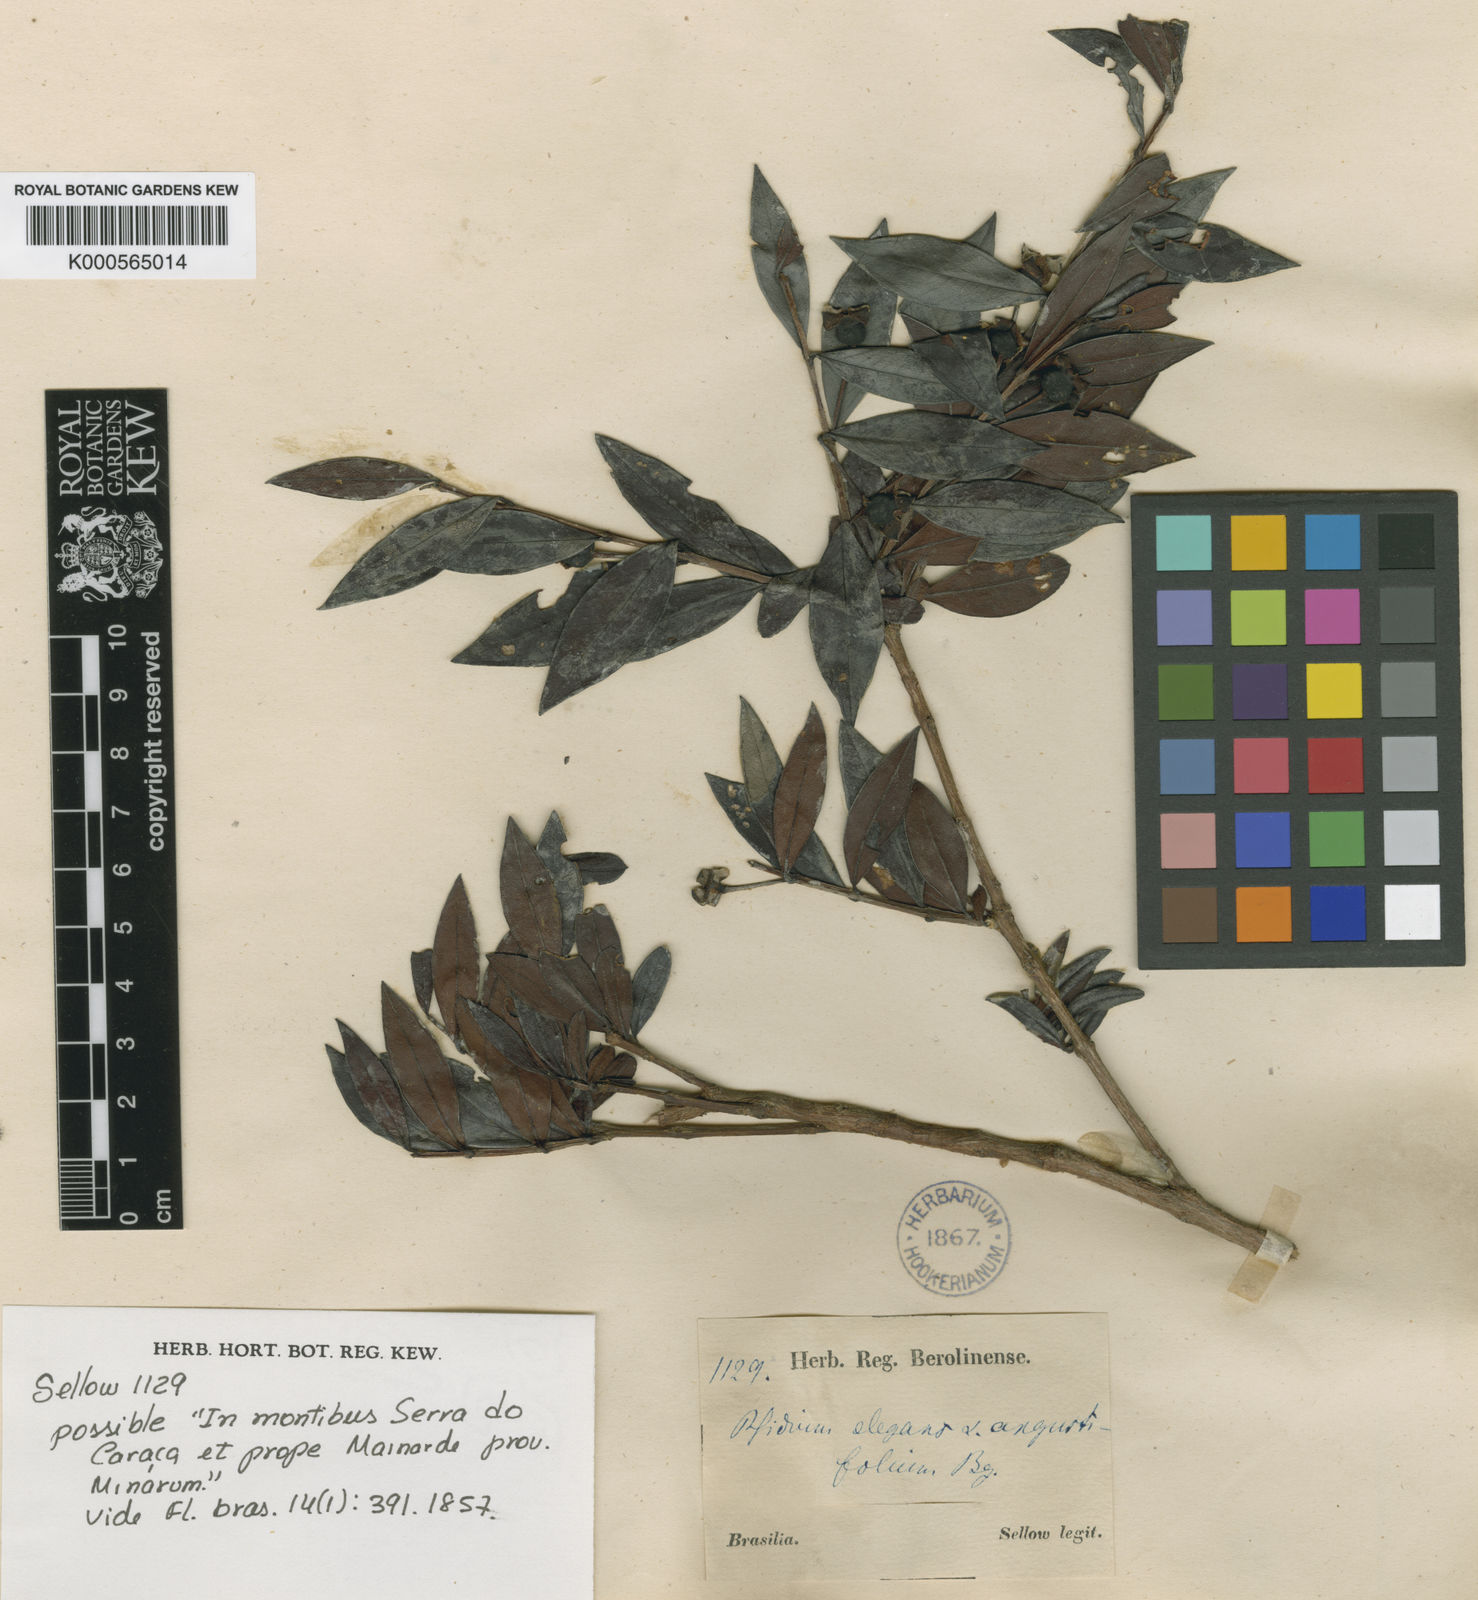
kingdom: Plantae
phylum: Tracheophyta
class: Magnoliopsida
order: Myrtales
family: Myrtaceae
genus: Accara
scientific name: Accara elegans
